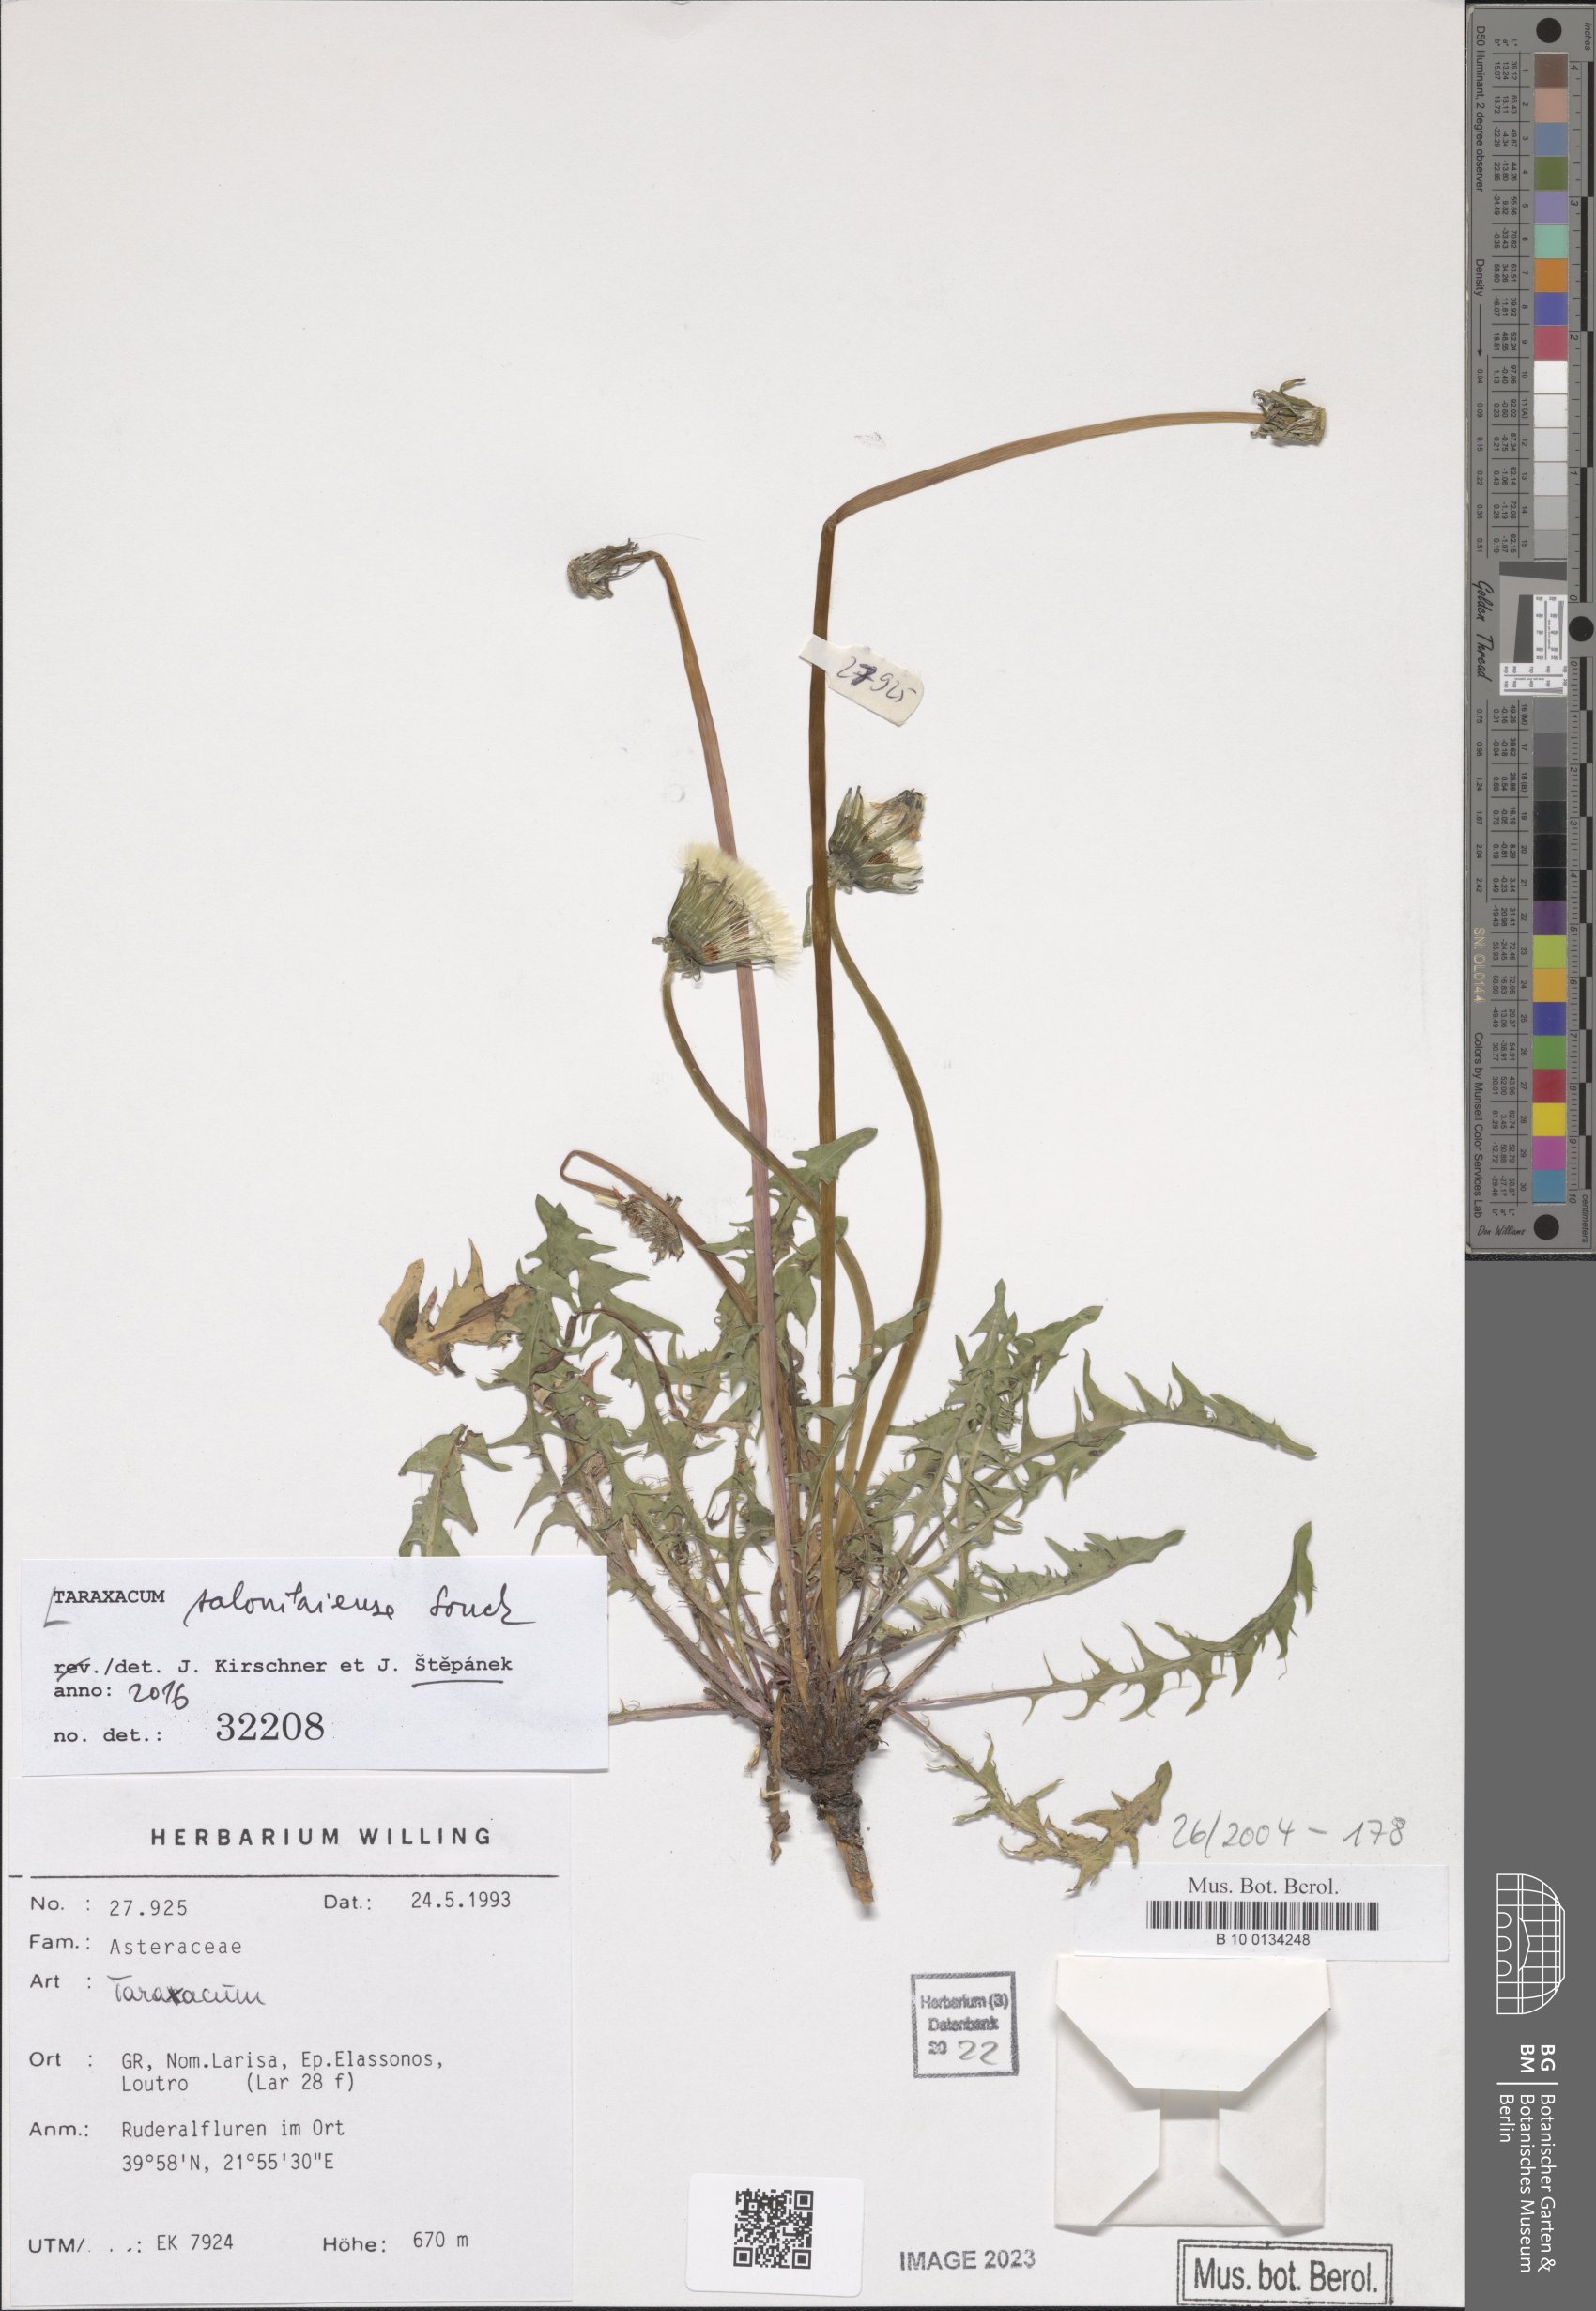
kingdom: Plantae
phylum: Tracheophyta
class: Magnoliopsida
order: Asterales
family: Asteraceae
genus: Taraxacum
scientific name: Taraxacum salonikiense
